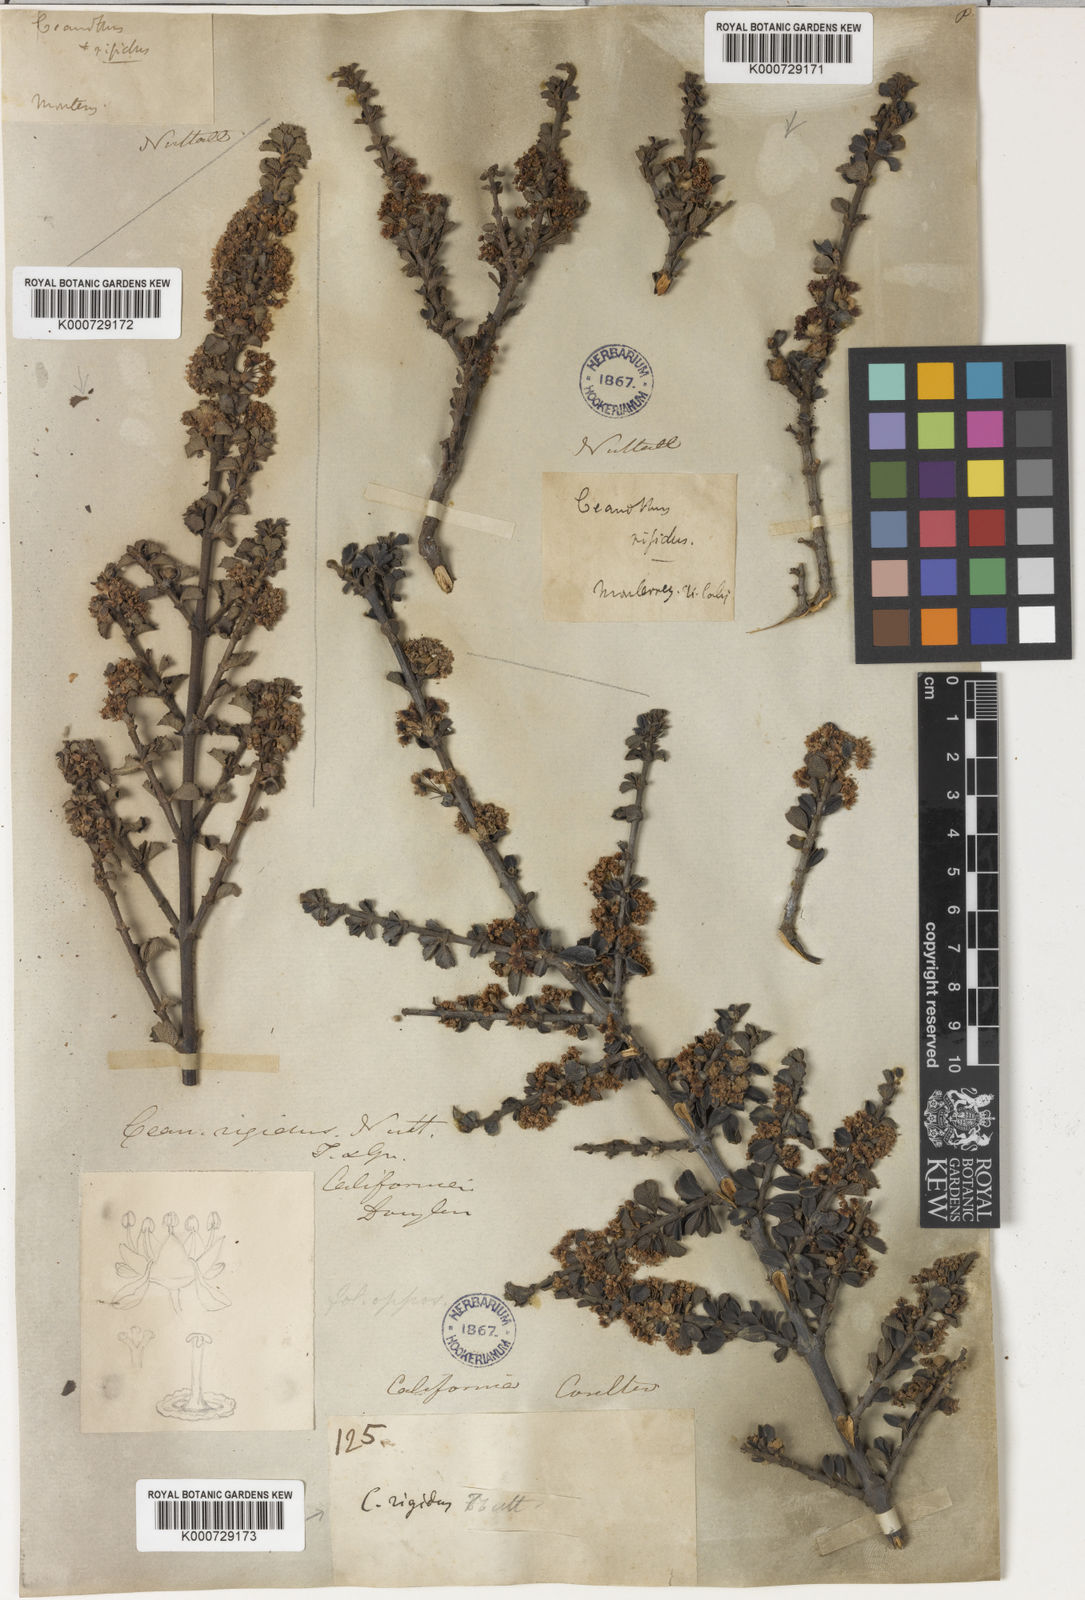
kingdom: Plantae
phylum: Tracheophyta
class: Magnoliopsida
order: Rosales
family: Rhamnaceae
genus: Ceanothus
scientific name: Ceanothus cuneatus
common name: Cuneate ceanothus
